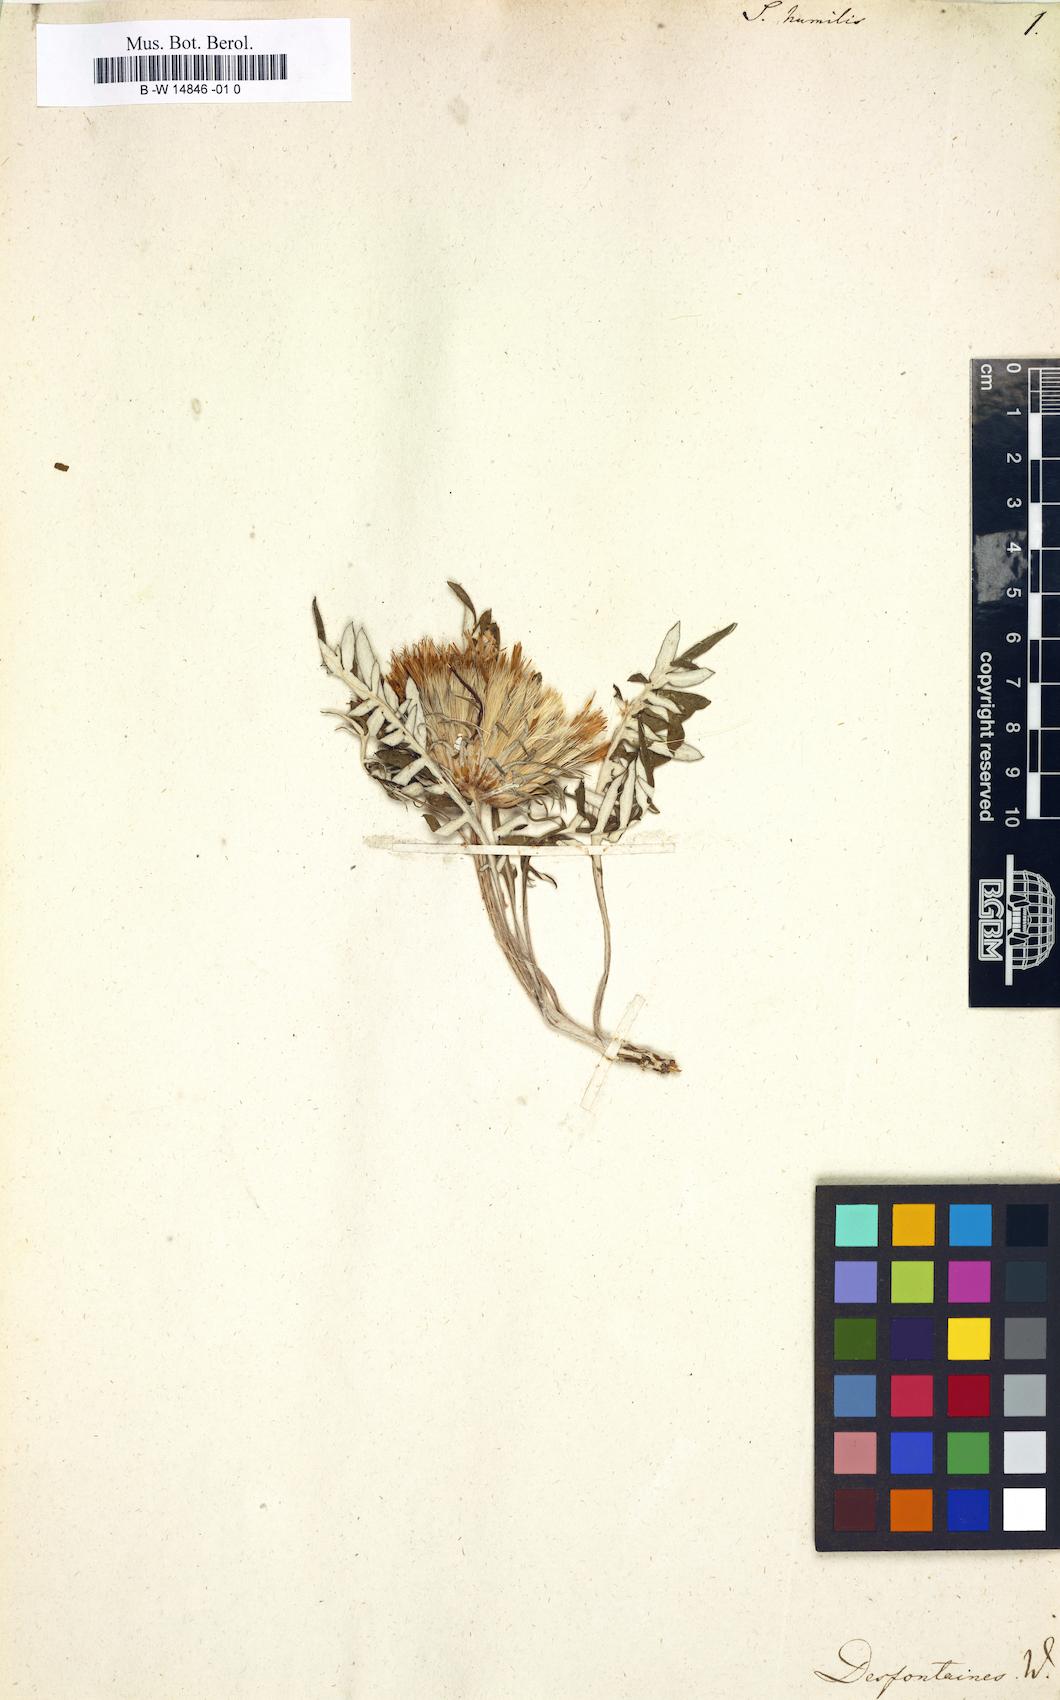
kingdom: Plantae
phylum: Tracheophyta
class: Magnoliopsida
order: Asterales
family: Asteraceae
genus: Jurinea
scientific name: Jurinea humilis
